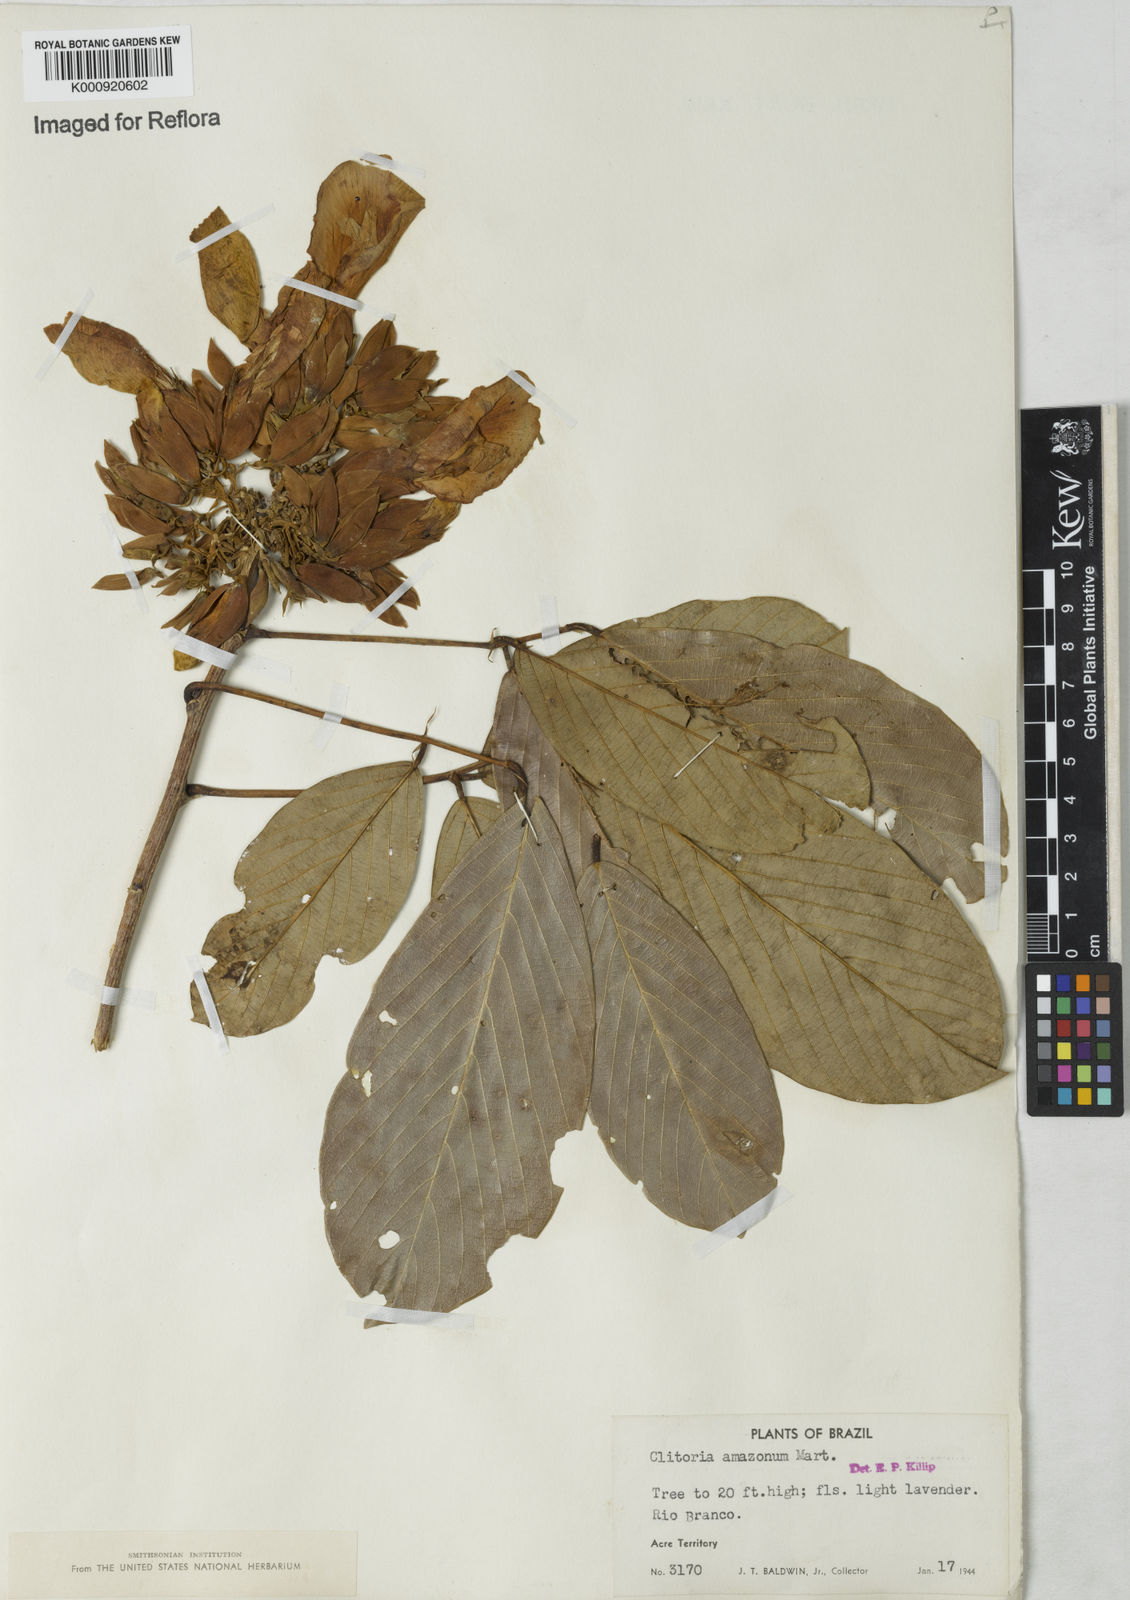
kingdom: Plantae
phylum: Tracheophyta
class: Magnoliopsida
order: Fabales
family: Fabaceae
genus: Clitoria
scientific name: Clitoria amazonum
